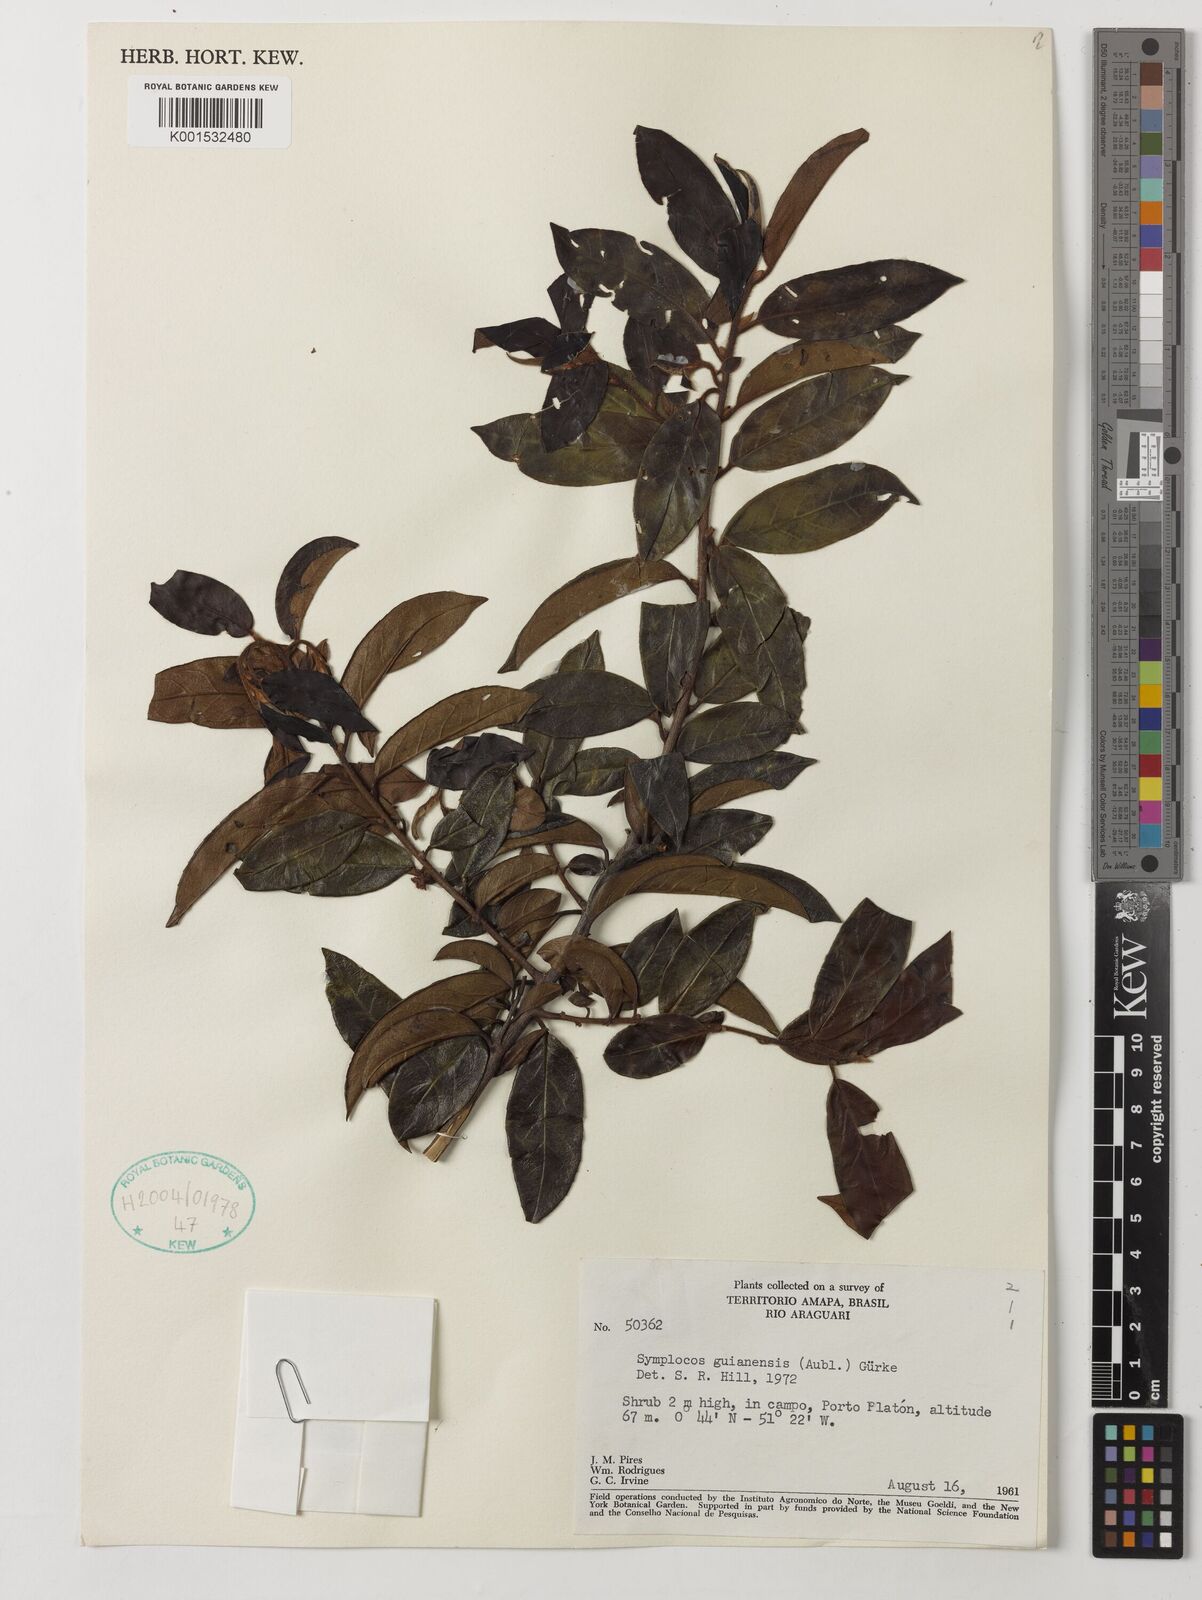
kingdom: Plantae
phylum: Tracheophyta
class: Magnoliopsida
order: Ericales
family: Symplocaceae
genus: Symplocos
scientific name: Symplocos guianensis
